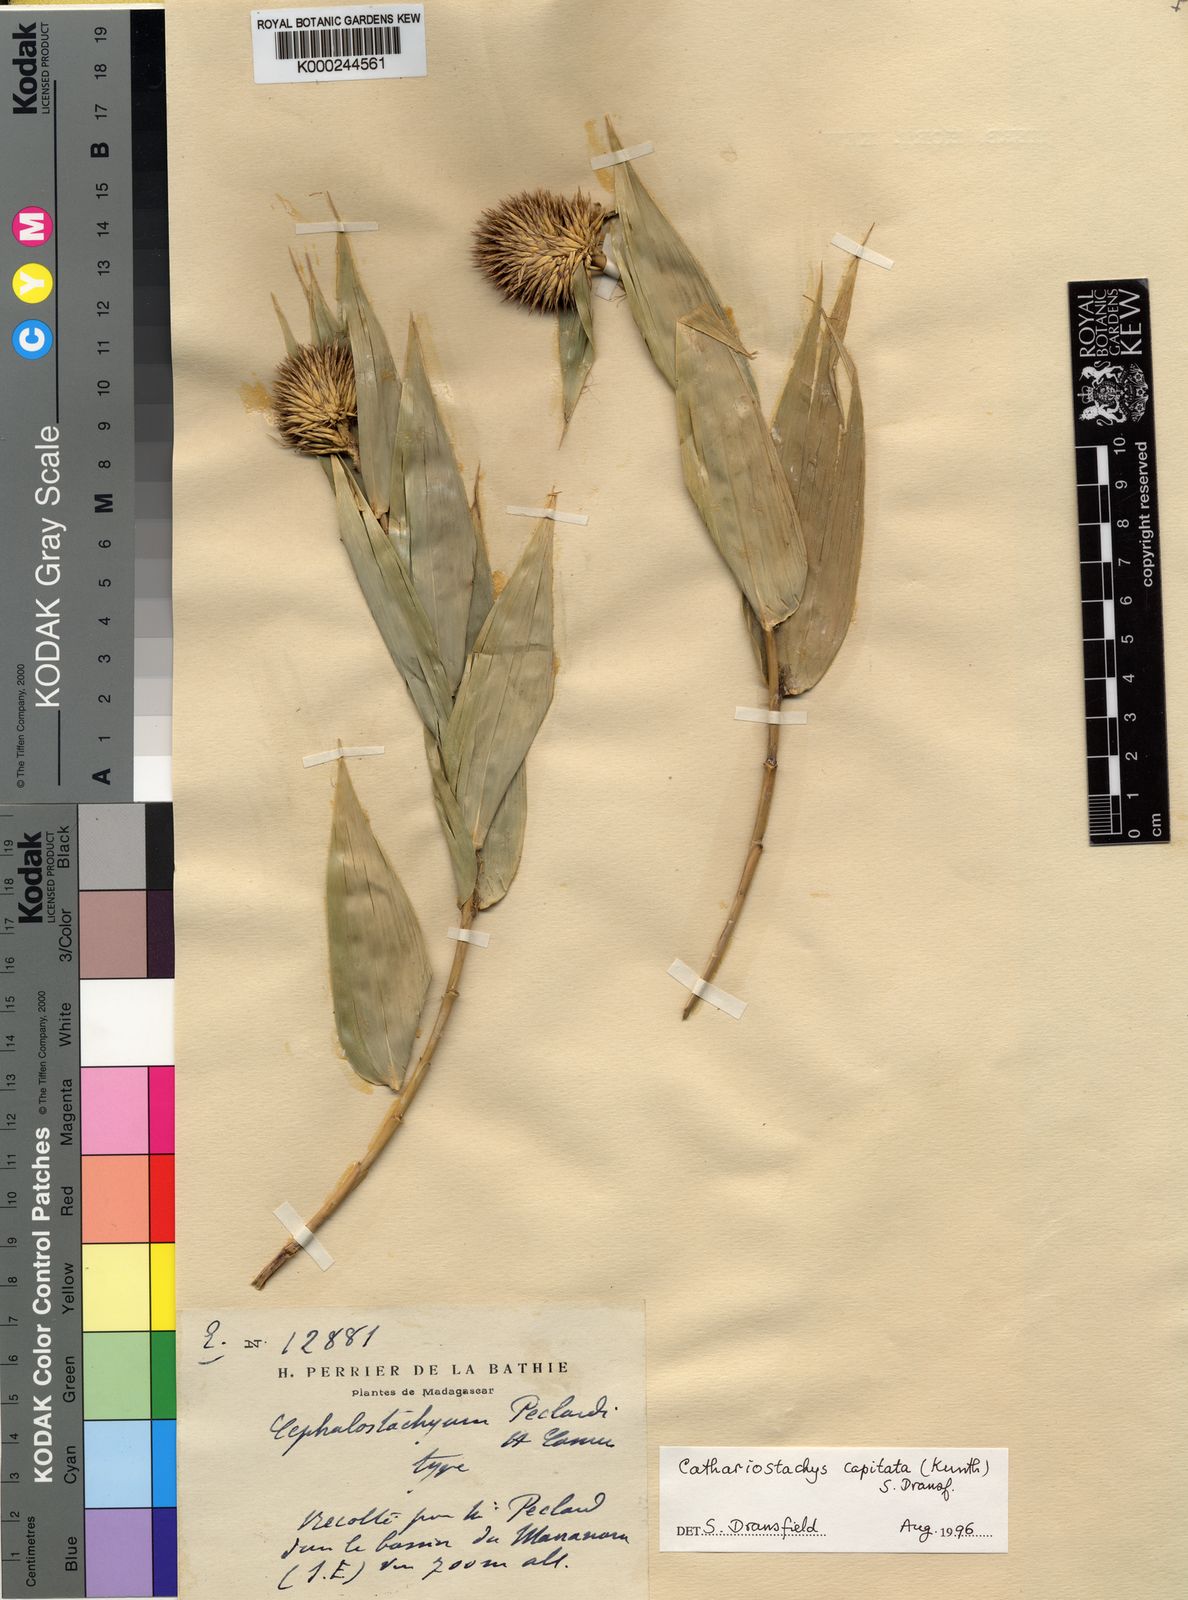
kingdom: Plantae
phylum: Tracheophyta
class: Liliopsida
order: Poales
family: Poaceae
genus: Cathariostachys
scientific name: Cathariostachys capitata
